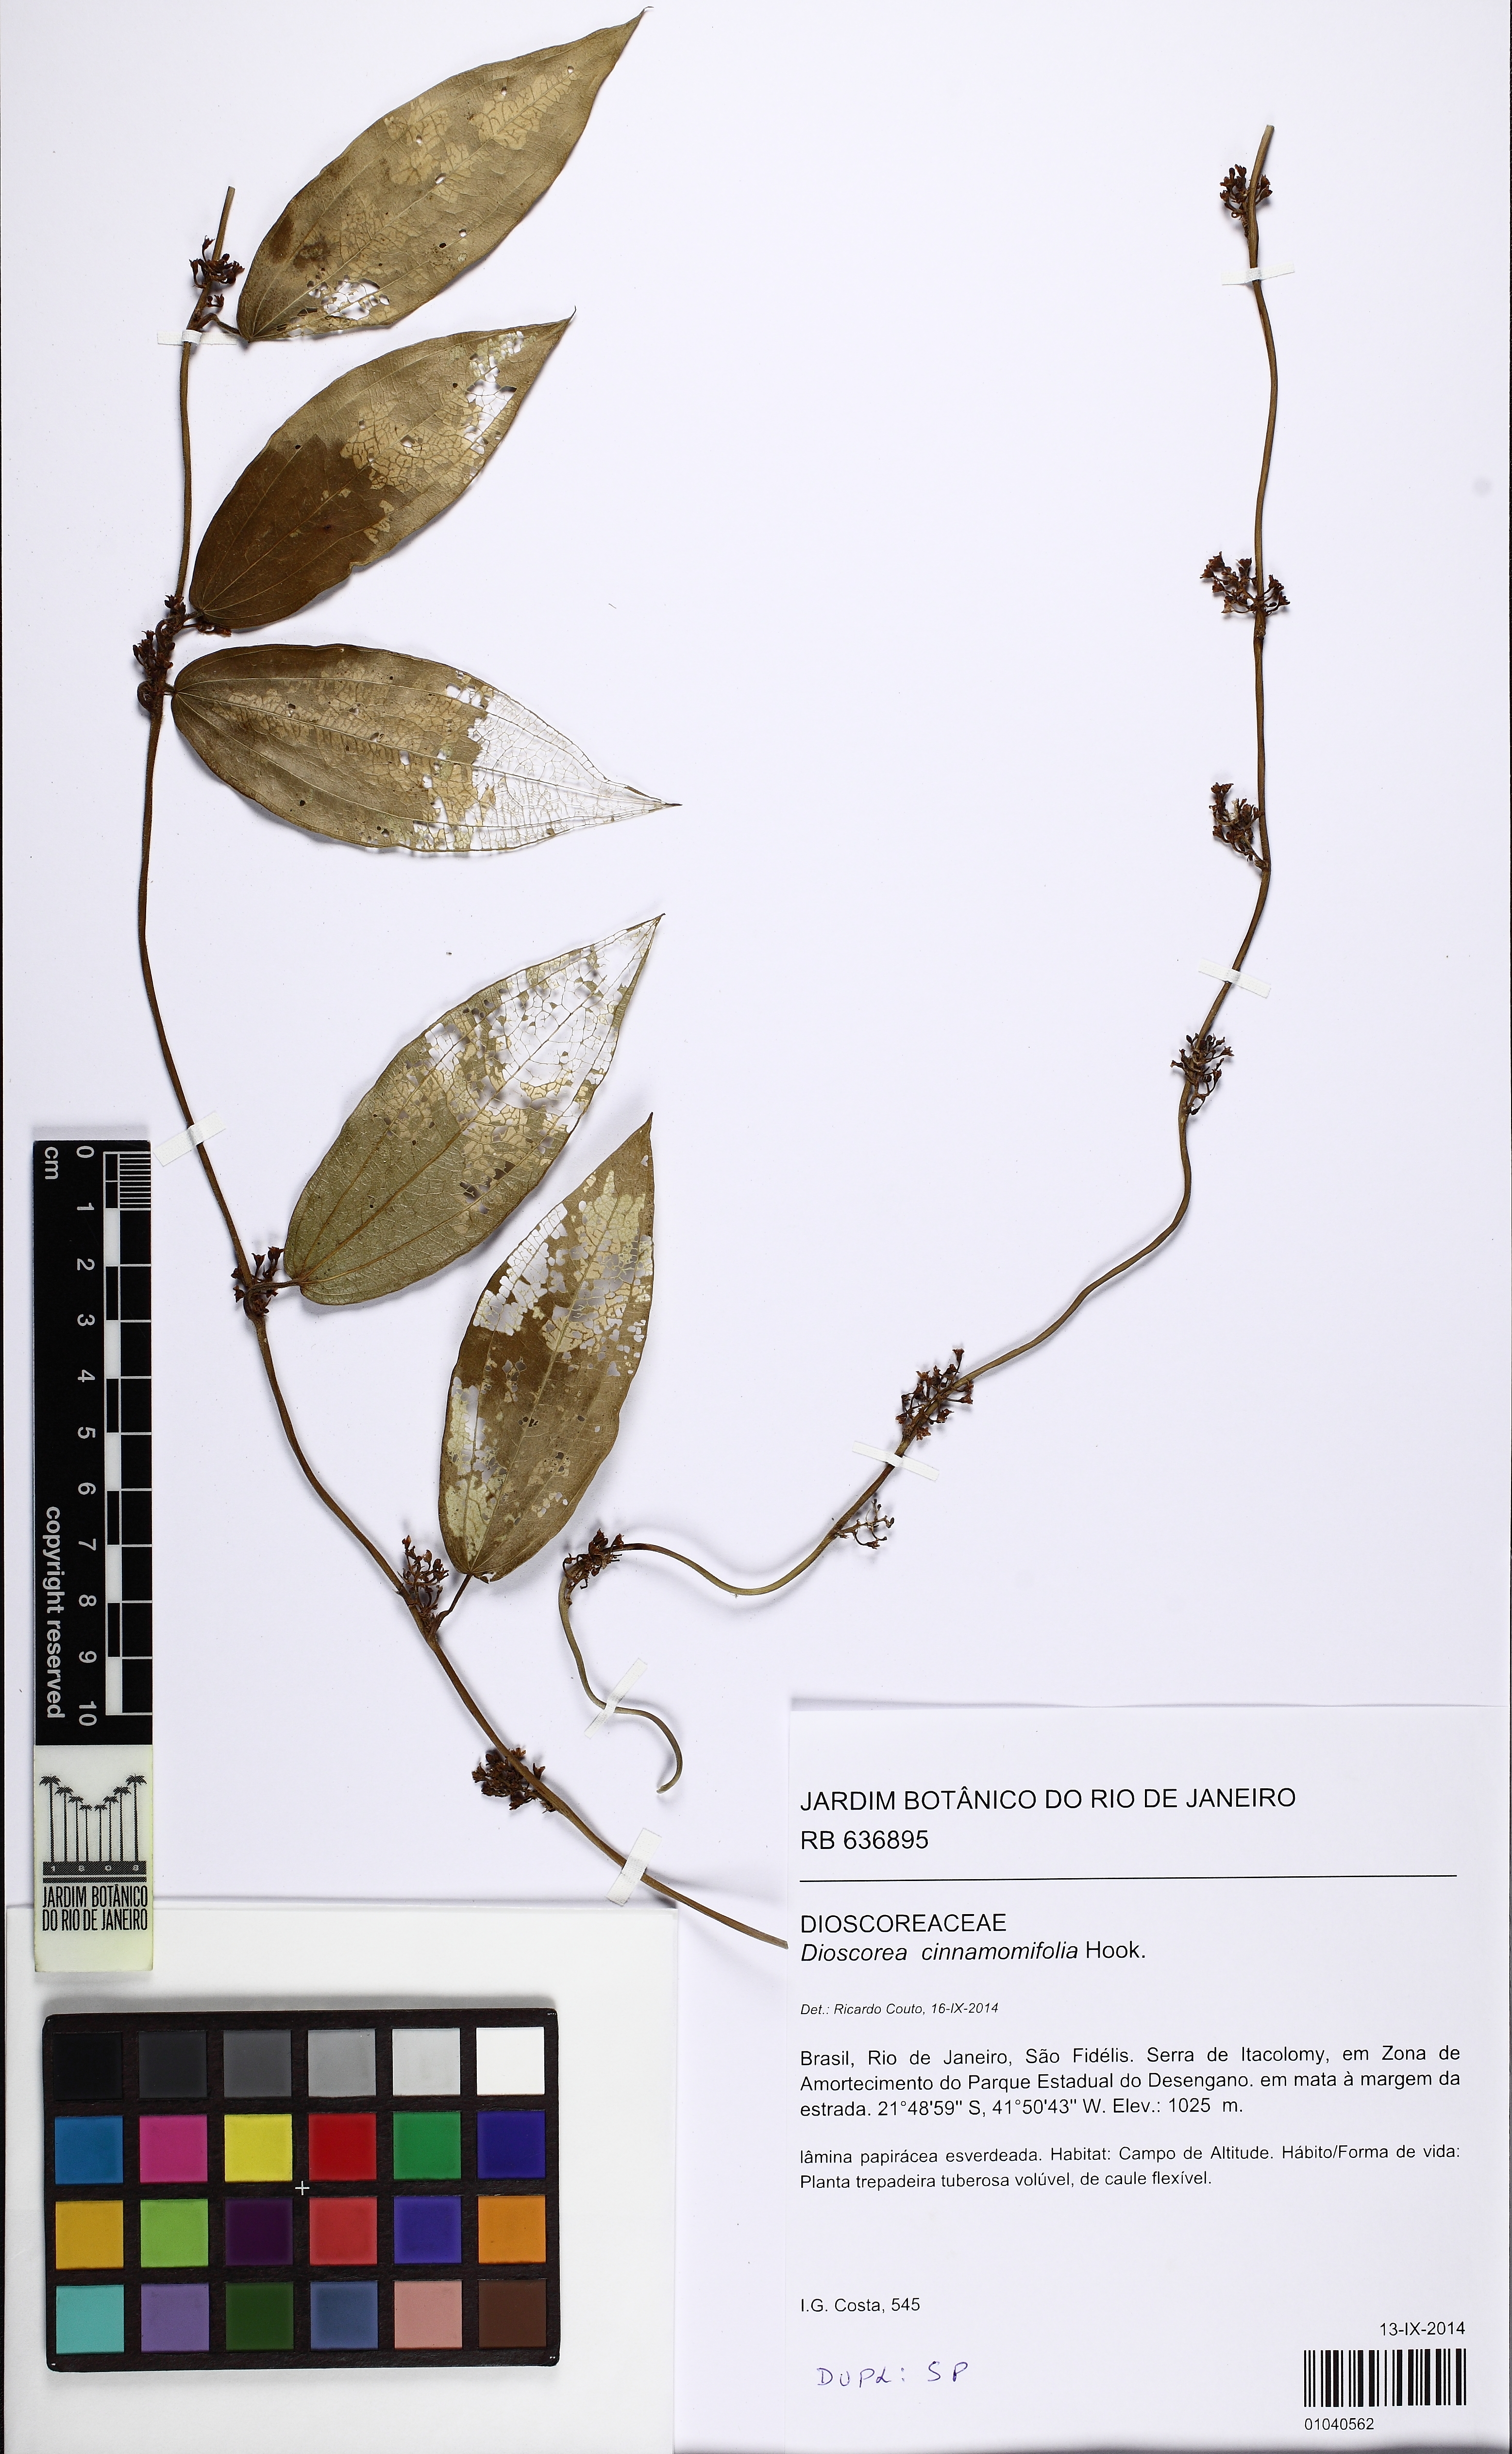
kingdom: Plantae
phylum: Tracheophyta
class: Liliopsida
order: Dioscoreales
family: Dioscoreaceae
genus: Dioscorea
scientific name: Dioscorea campanulata
